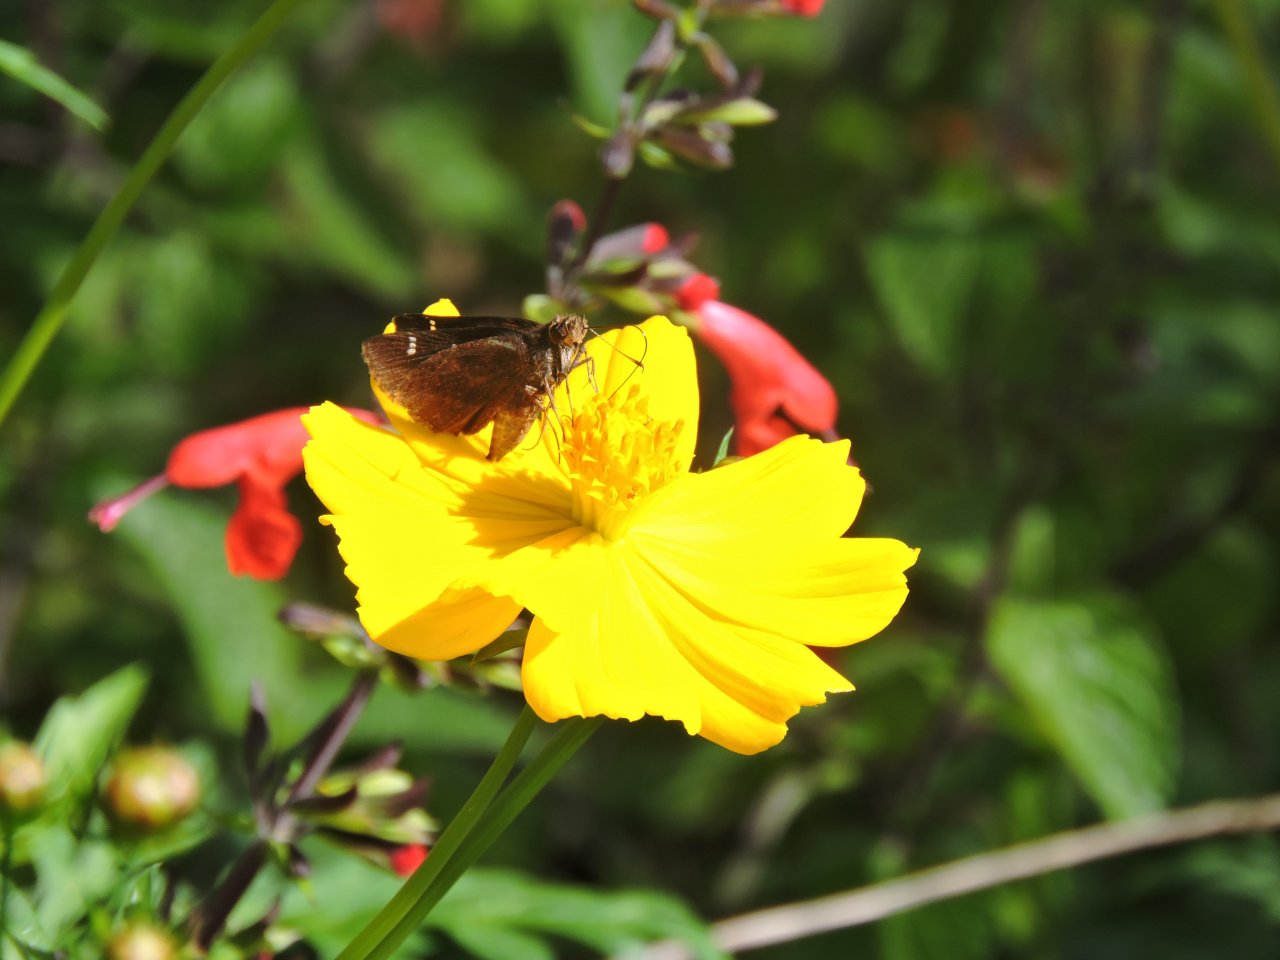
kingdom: Animalia
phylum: Arthropoda
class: Insecta
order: Lepidoptera
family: Hesperiidae
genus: Lerema
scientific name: Lerema accius
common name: Clouded Skipper
